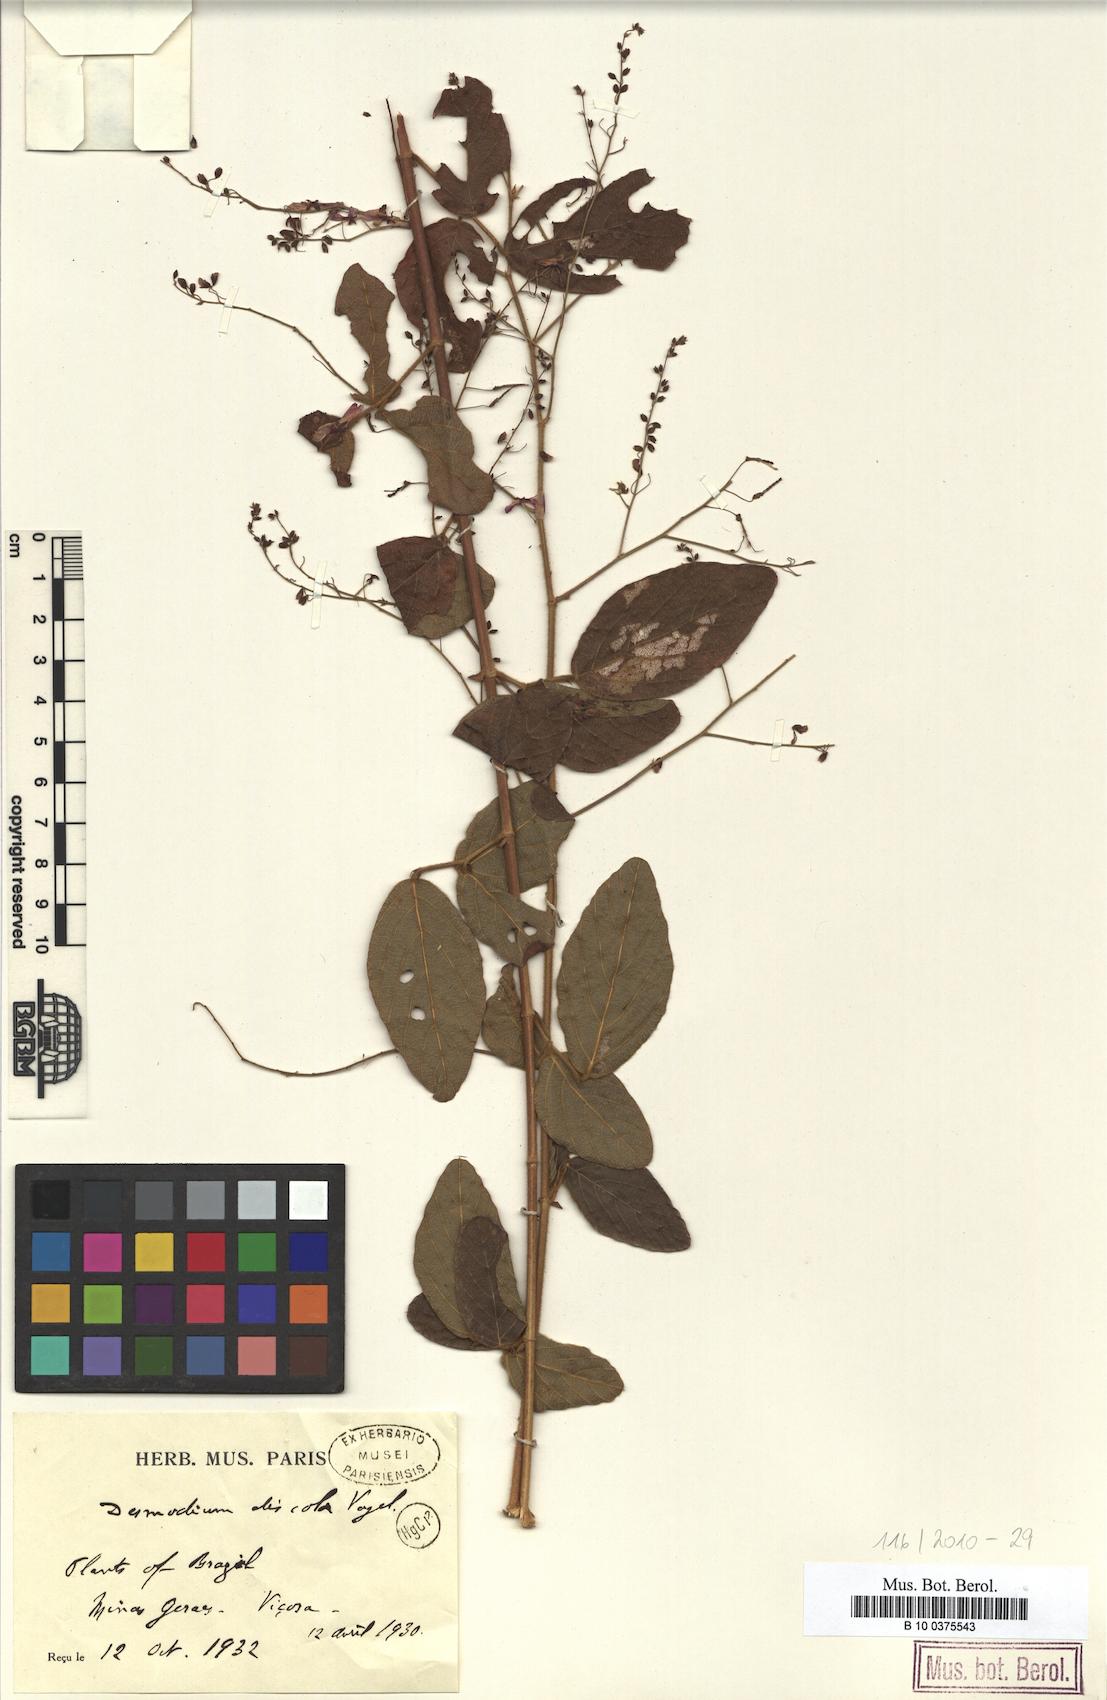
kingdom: Plantae
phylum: Tracheophyta
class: Magnoliopsida
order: Fabales
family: Fabaceae
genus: Desmodium
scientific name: Desmodium subsecundum
